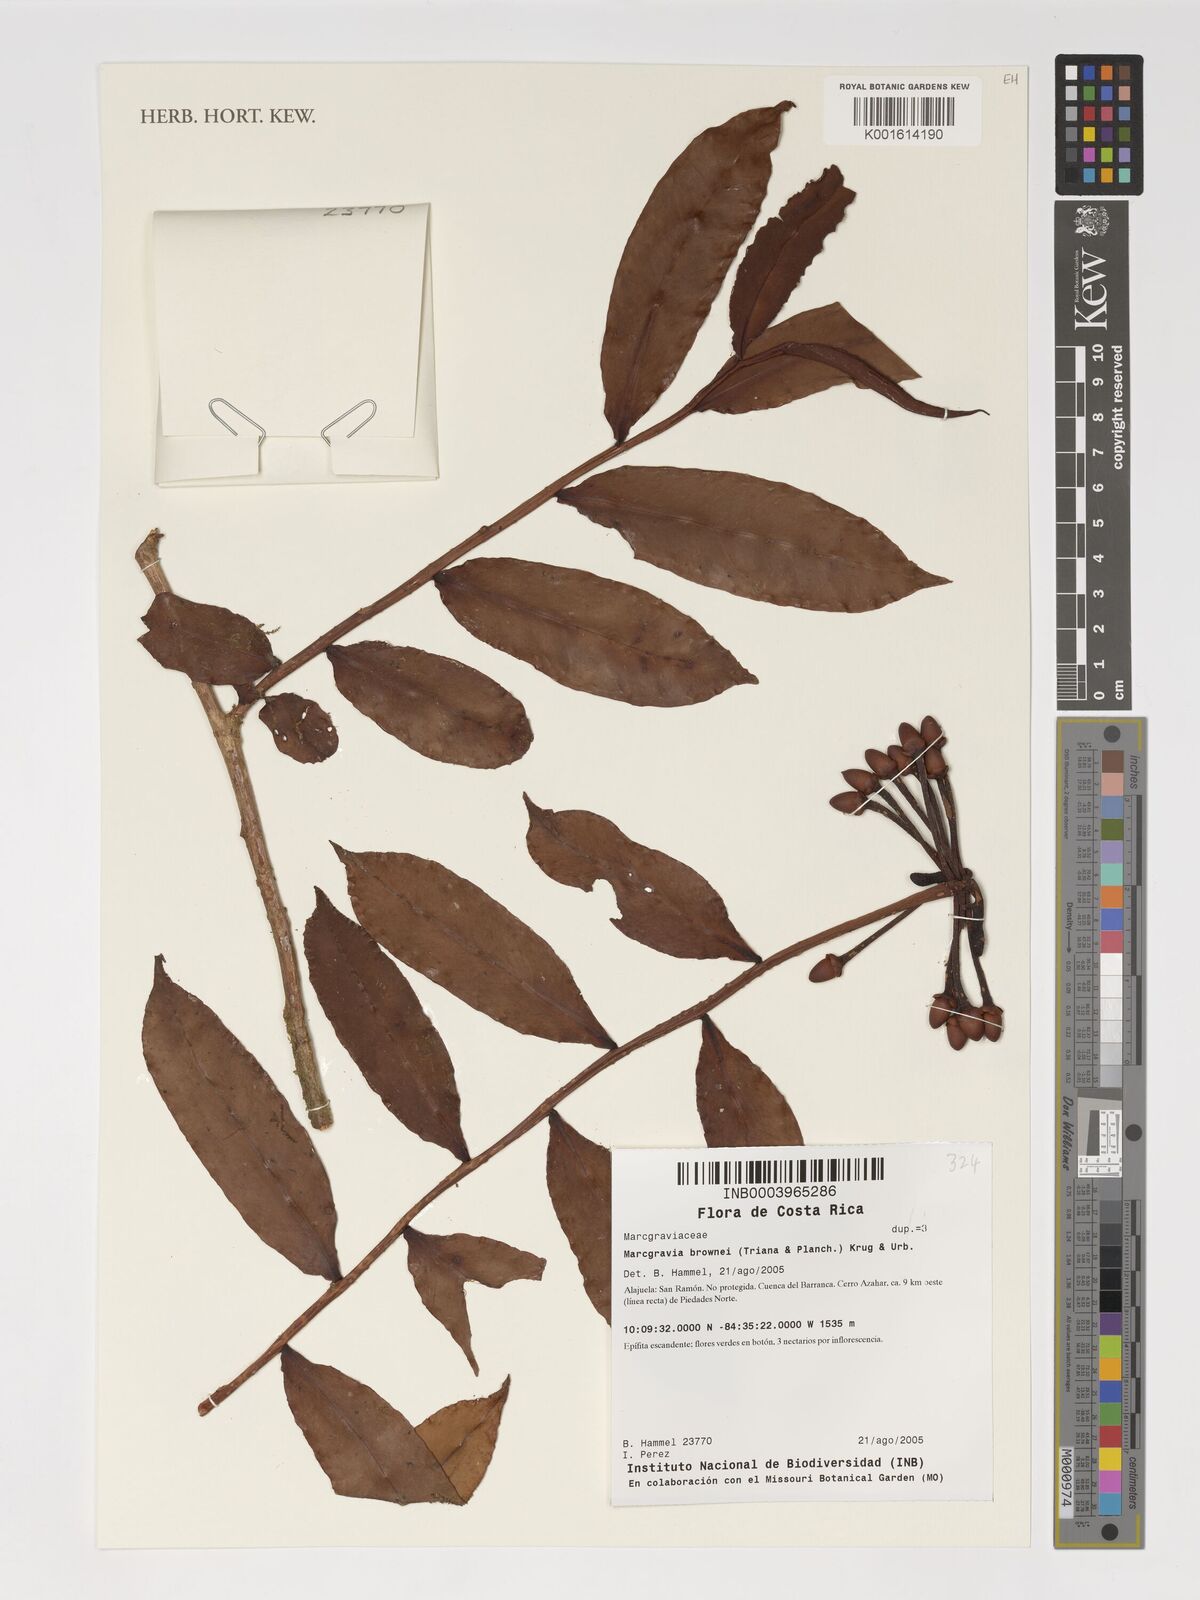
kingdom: Plantae
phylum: Tracheophyta
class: Magnoliopsida
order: Ericales
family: Marcgraviaceae
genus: Marcgravia
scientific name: Marcgravia brownei
